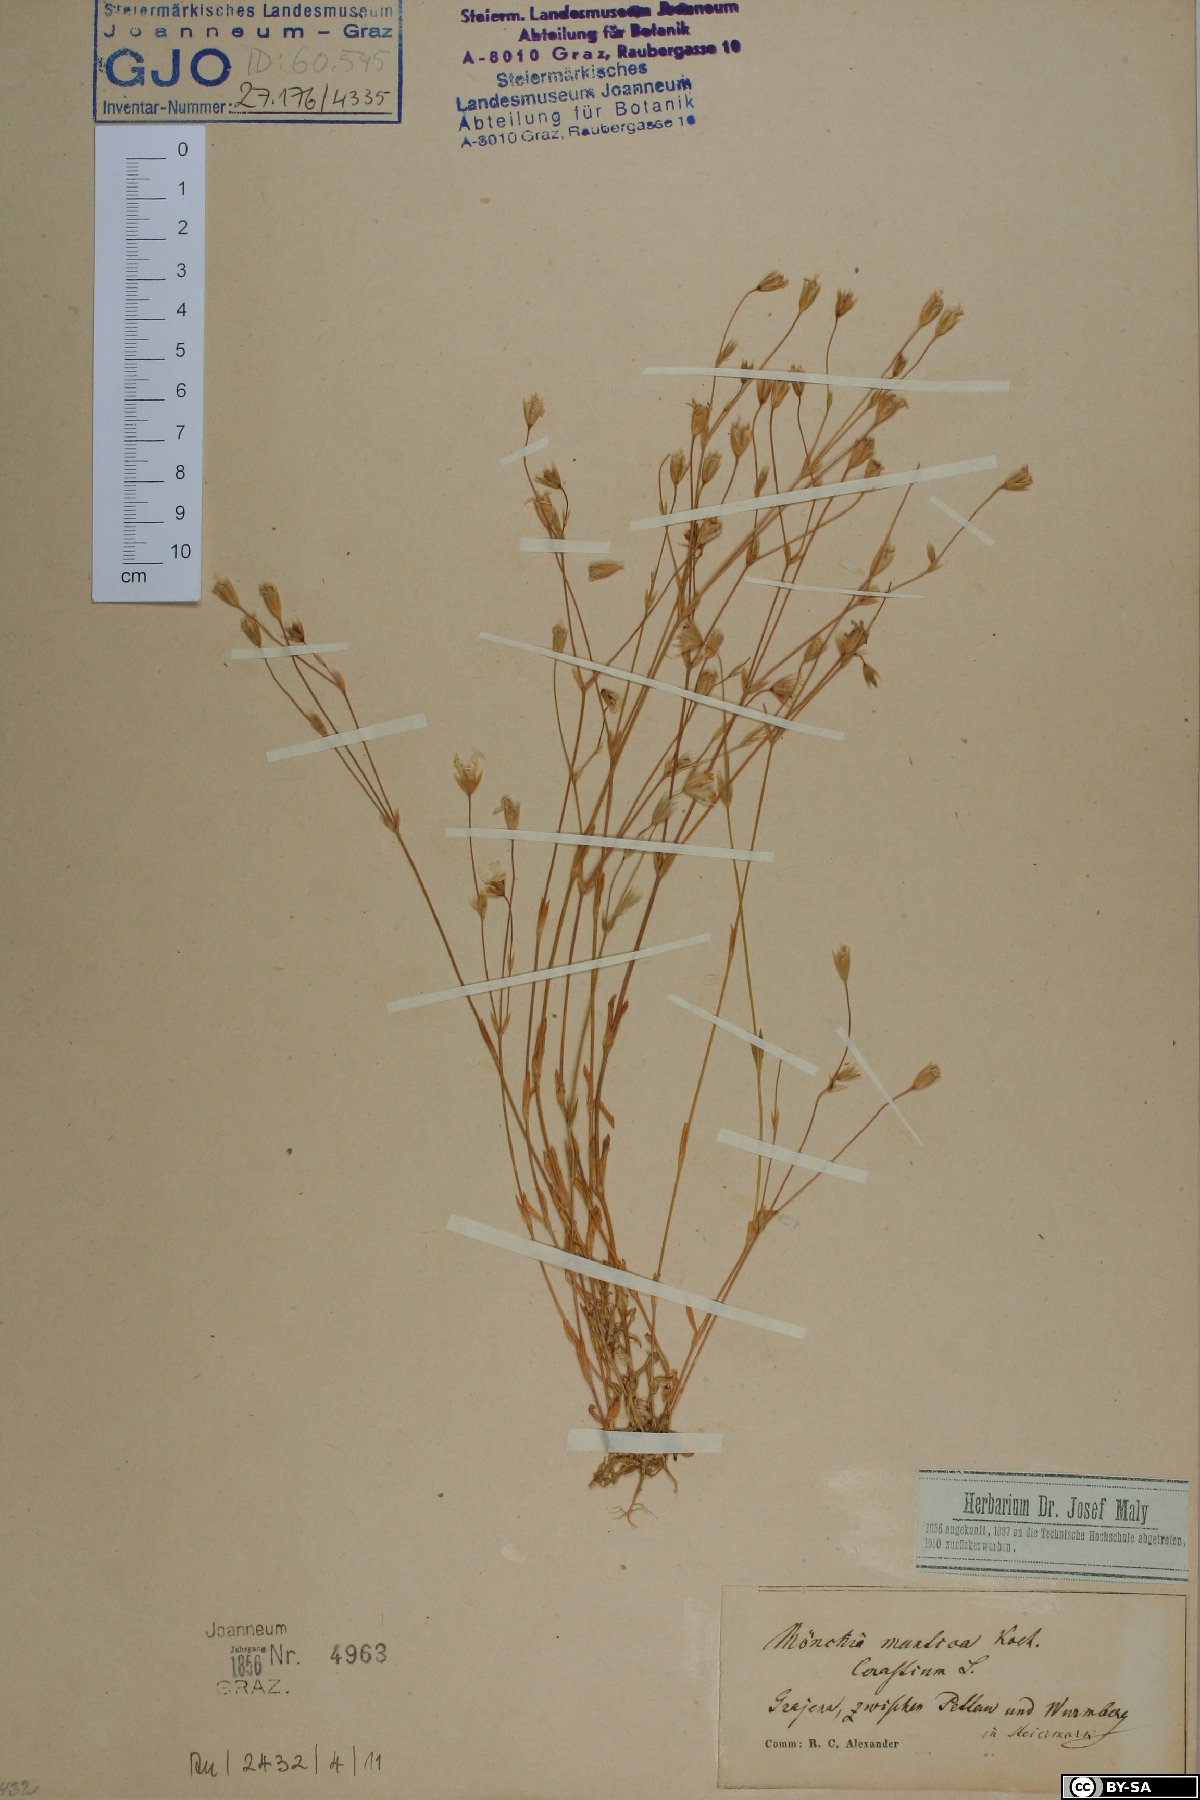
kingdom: Plantae
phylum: Tracheophyta
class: Magnoliopsida
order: Caryophyllales
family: Caryophyllaceae
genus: Moenchia
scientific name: Moenchia mantica
